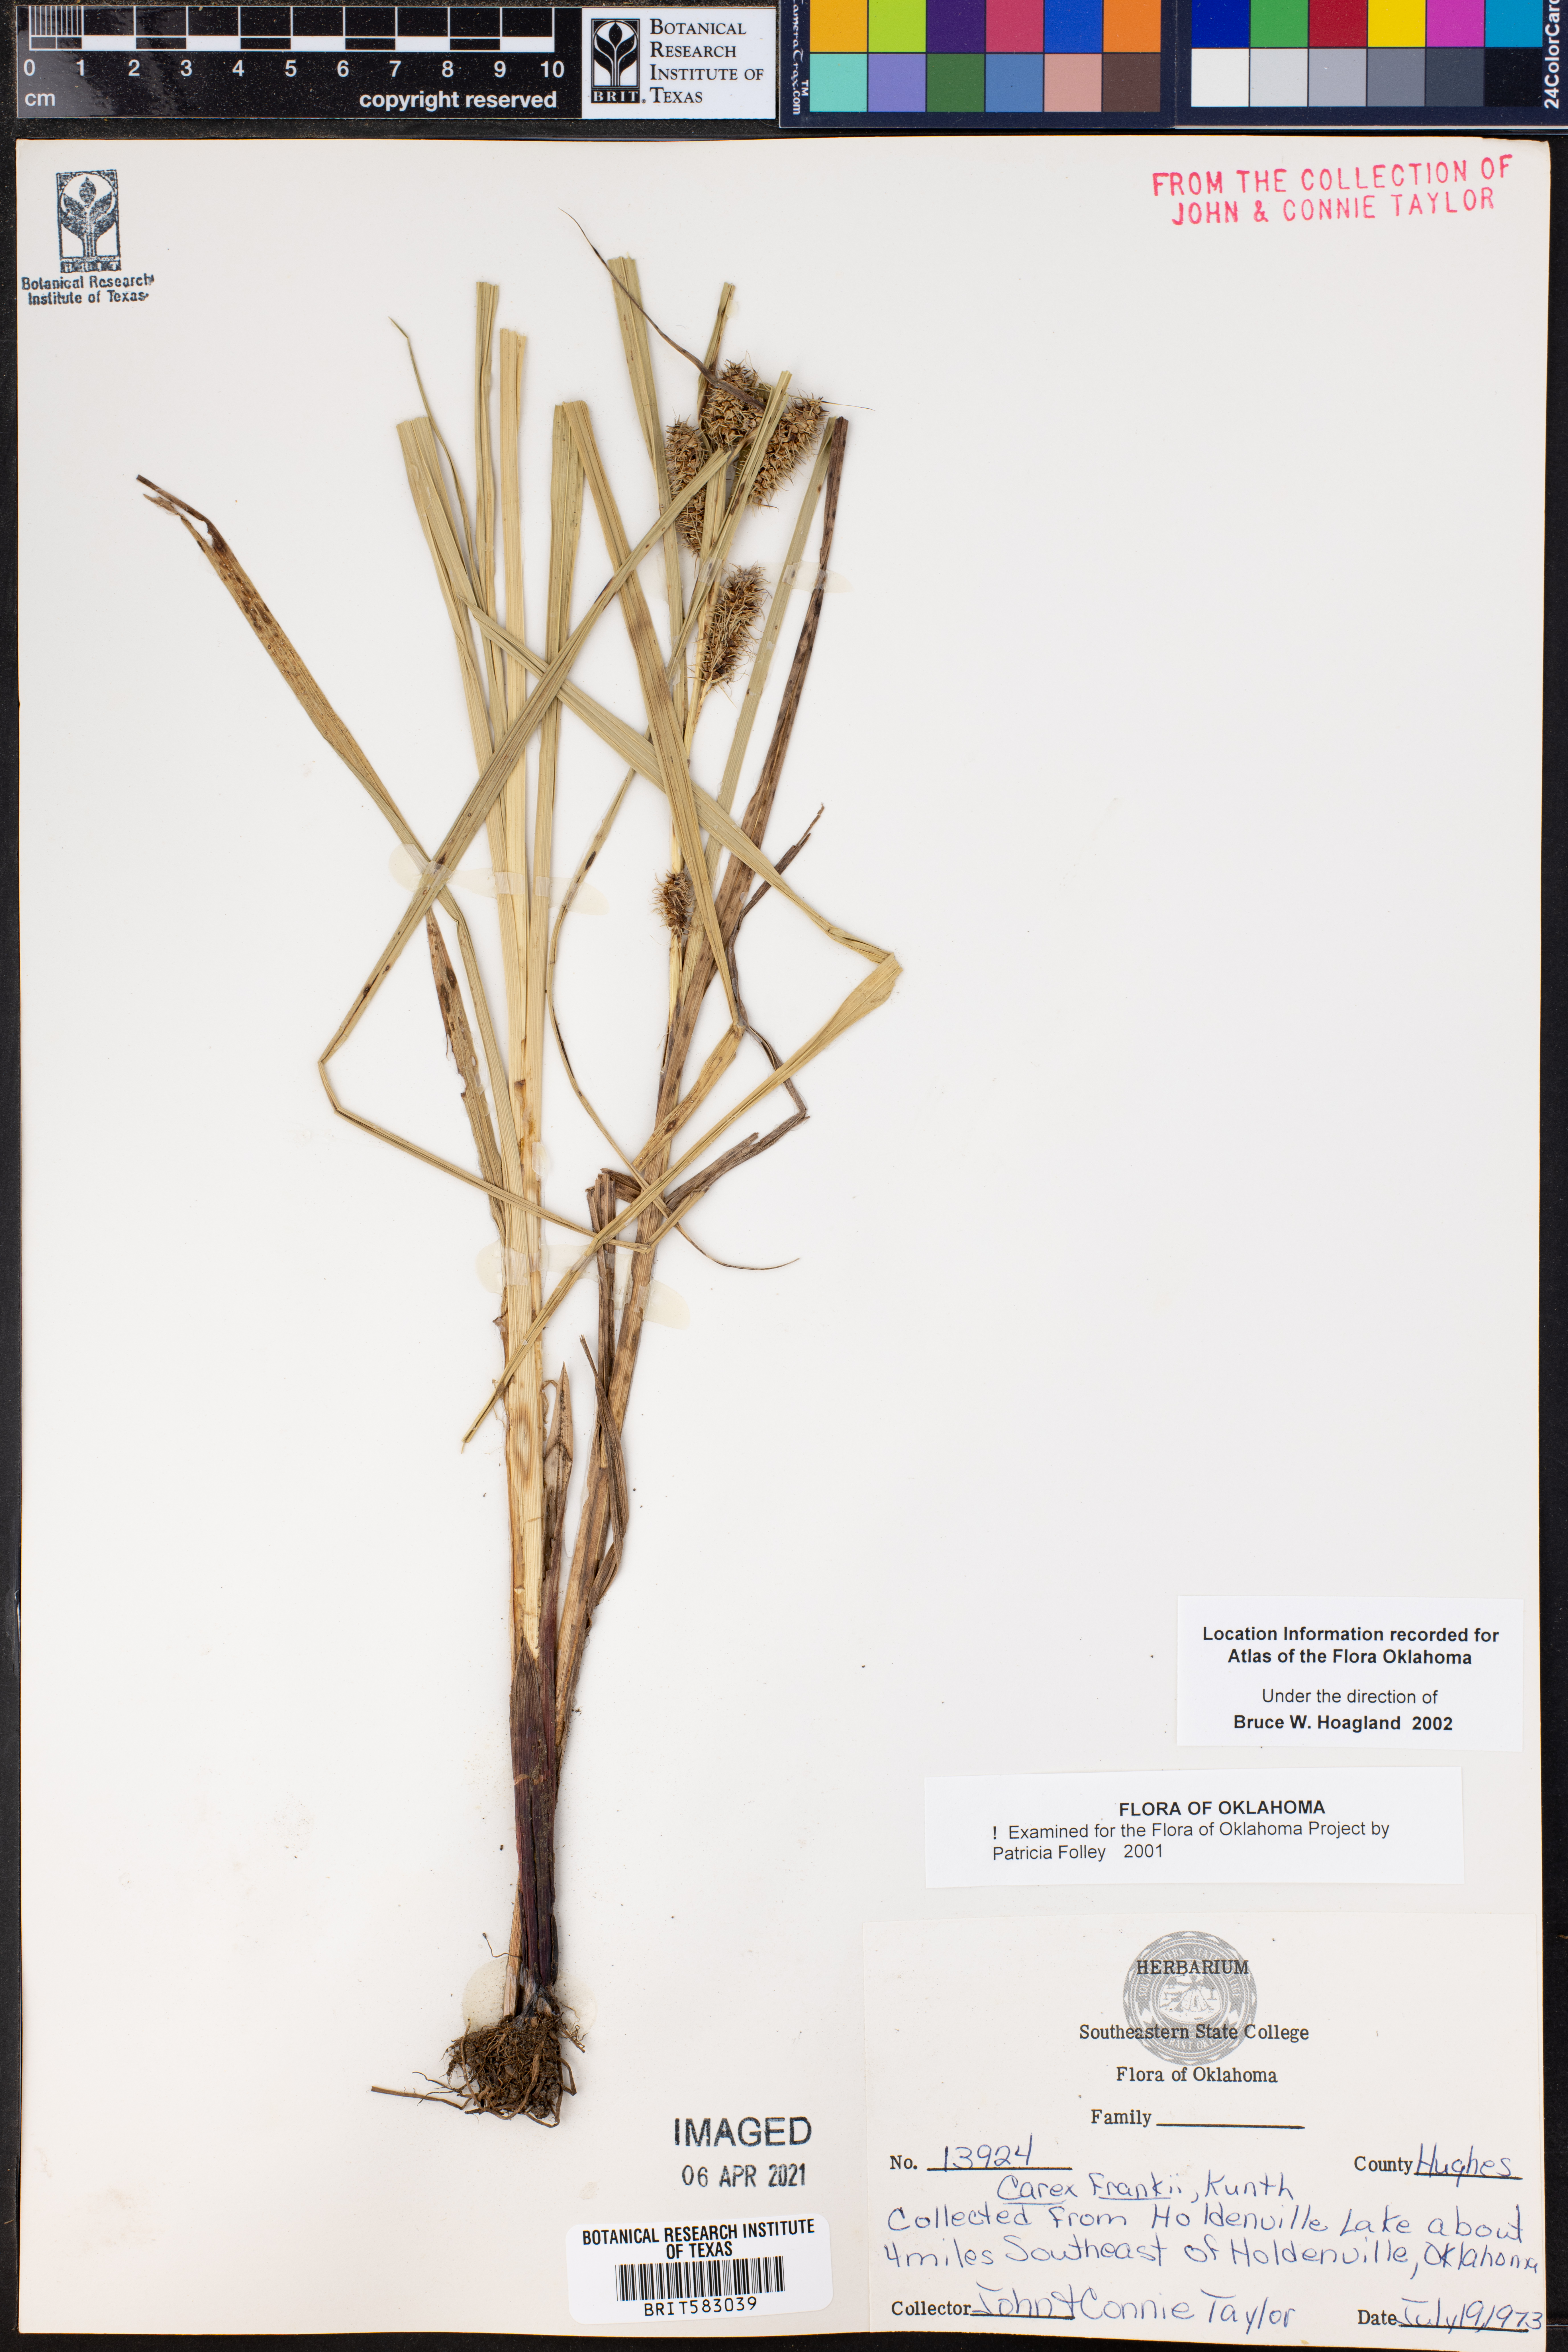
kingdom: Plantae
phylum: Tracheophyta
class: Liliopsida
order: Poales
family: Cyperaceae
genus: Carex
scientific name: Carex frankii
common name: Frank's sedge
